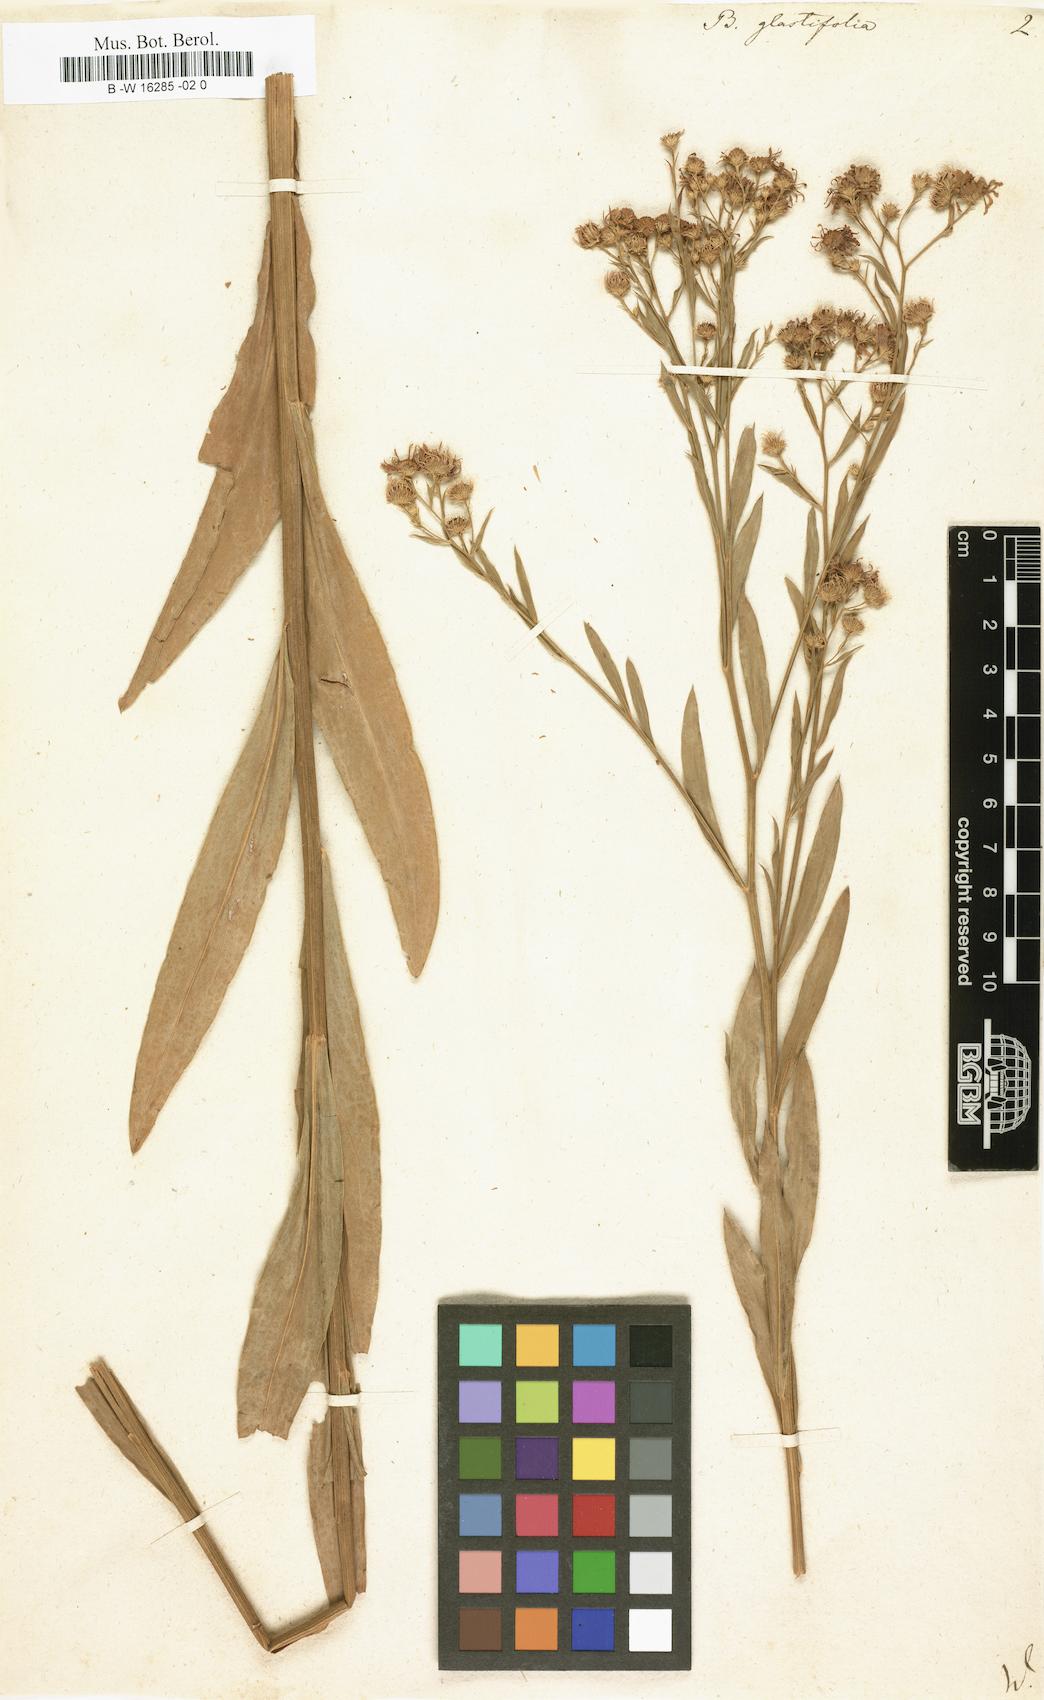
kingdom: Plantae
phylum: Tracheophyta
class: Magnoliopsida
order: Asterales
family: Asteraceae
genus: Boltonia
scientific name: Boltonia glastifolia
